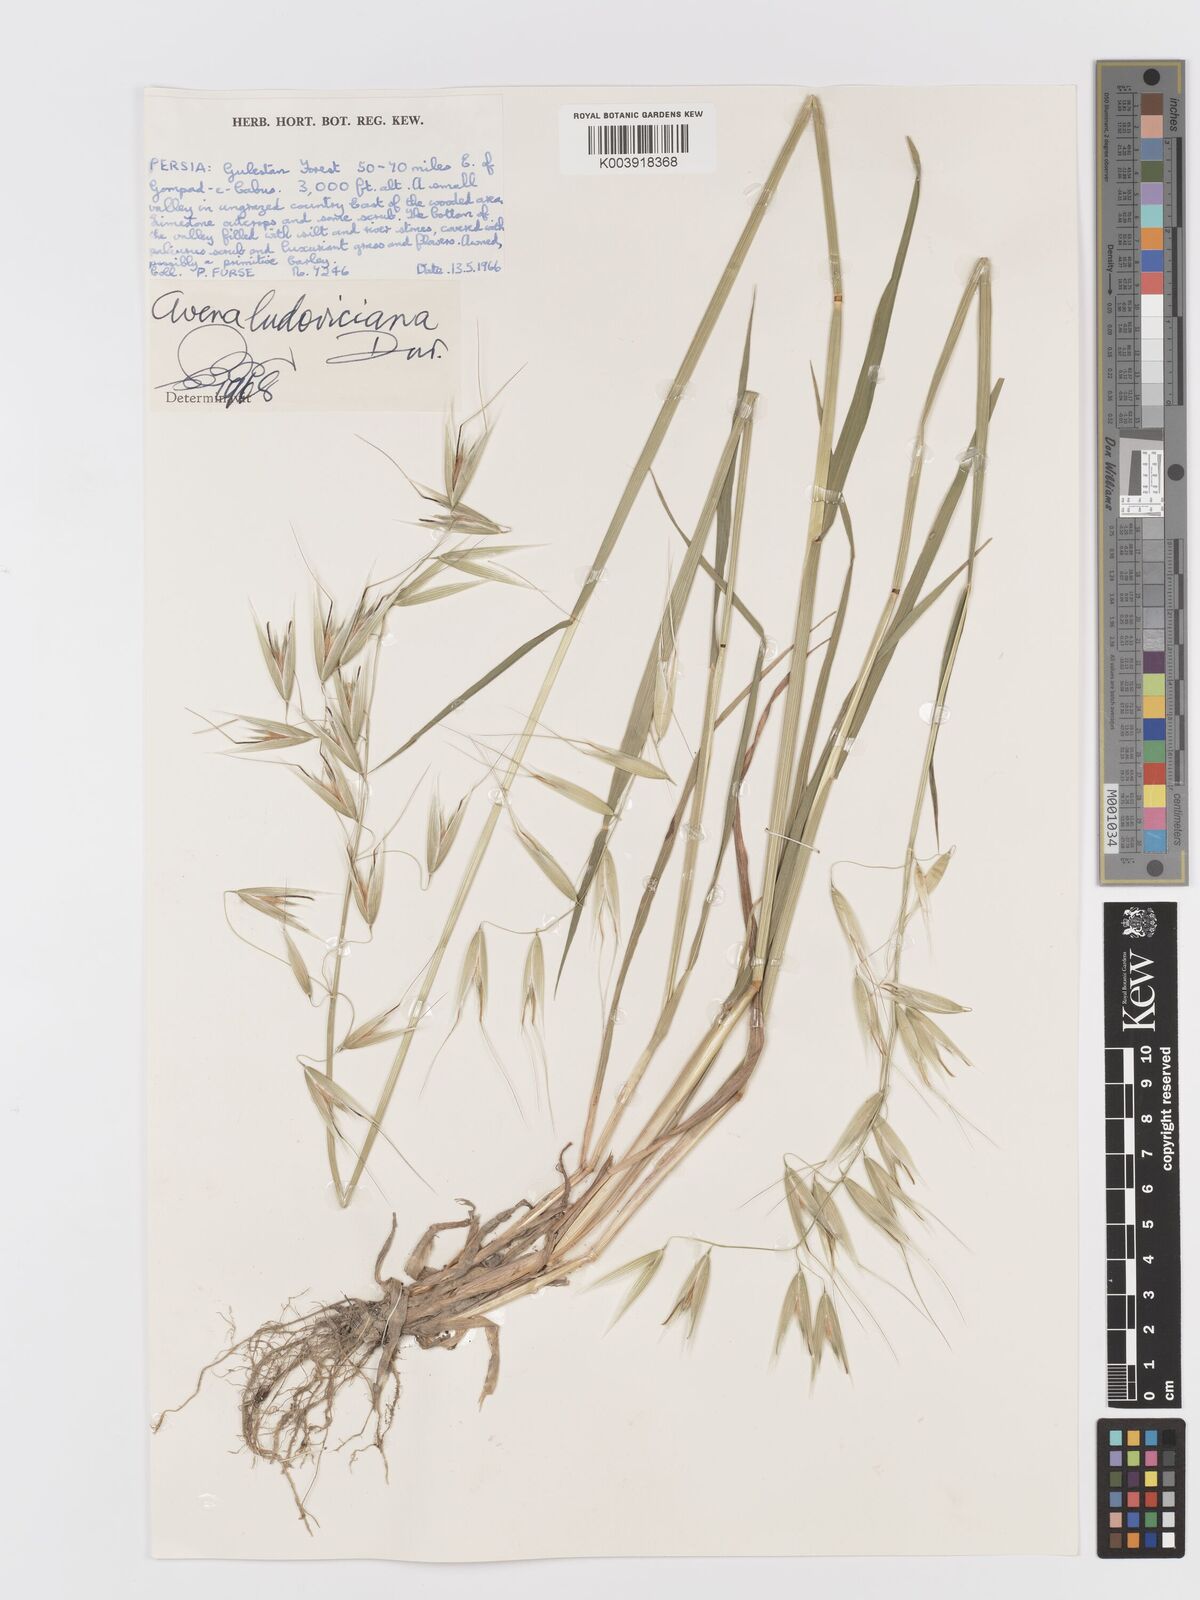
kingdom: Plantae
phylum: Tracheophyta
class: Liliopsida
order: Poales
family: Poaceae
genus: Avena
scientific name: Avena sterilis
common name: Animated oat
